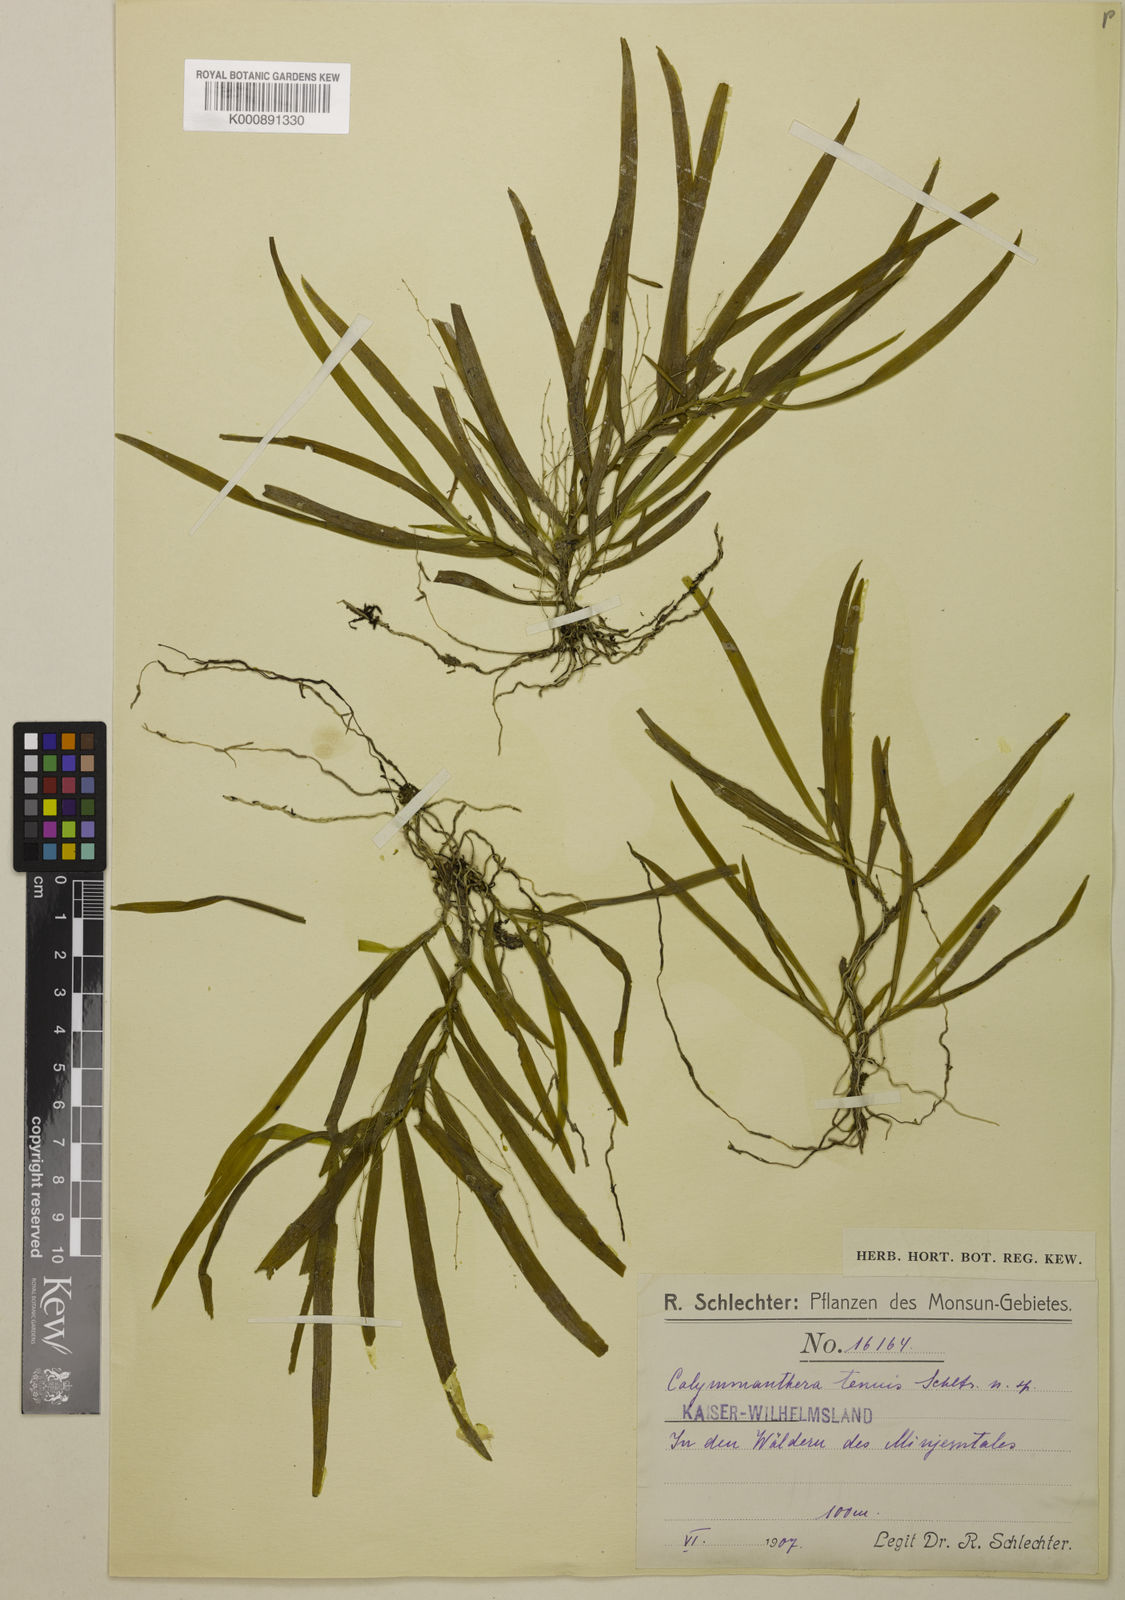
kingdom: Plantae
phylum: Tracheophyta
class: Liliopsida
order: Asparagales
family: Orchidaceae
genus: Calymmanthera
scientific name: Calymmanthera tenuis
